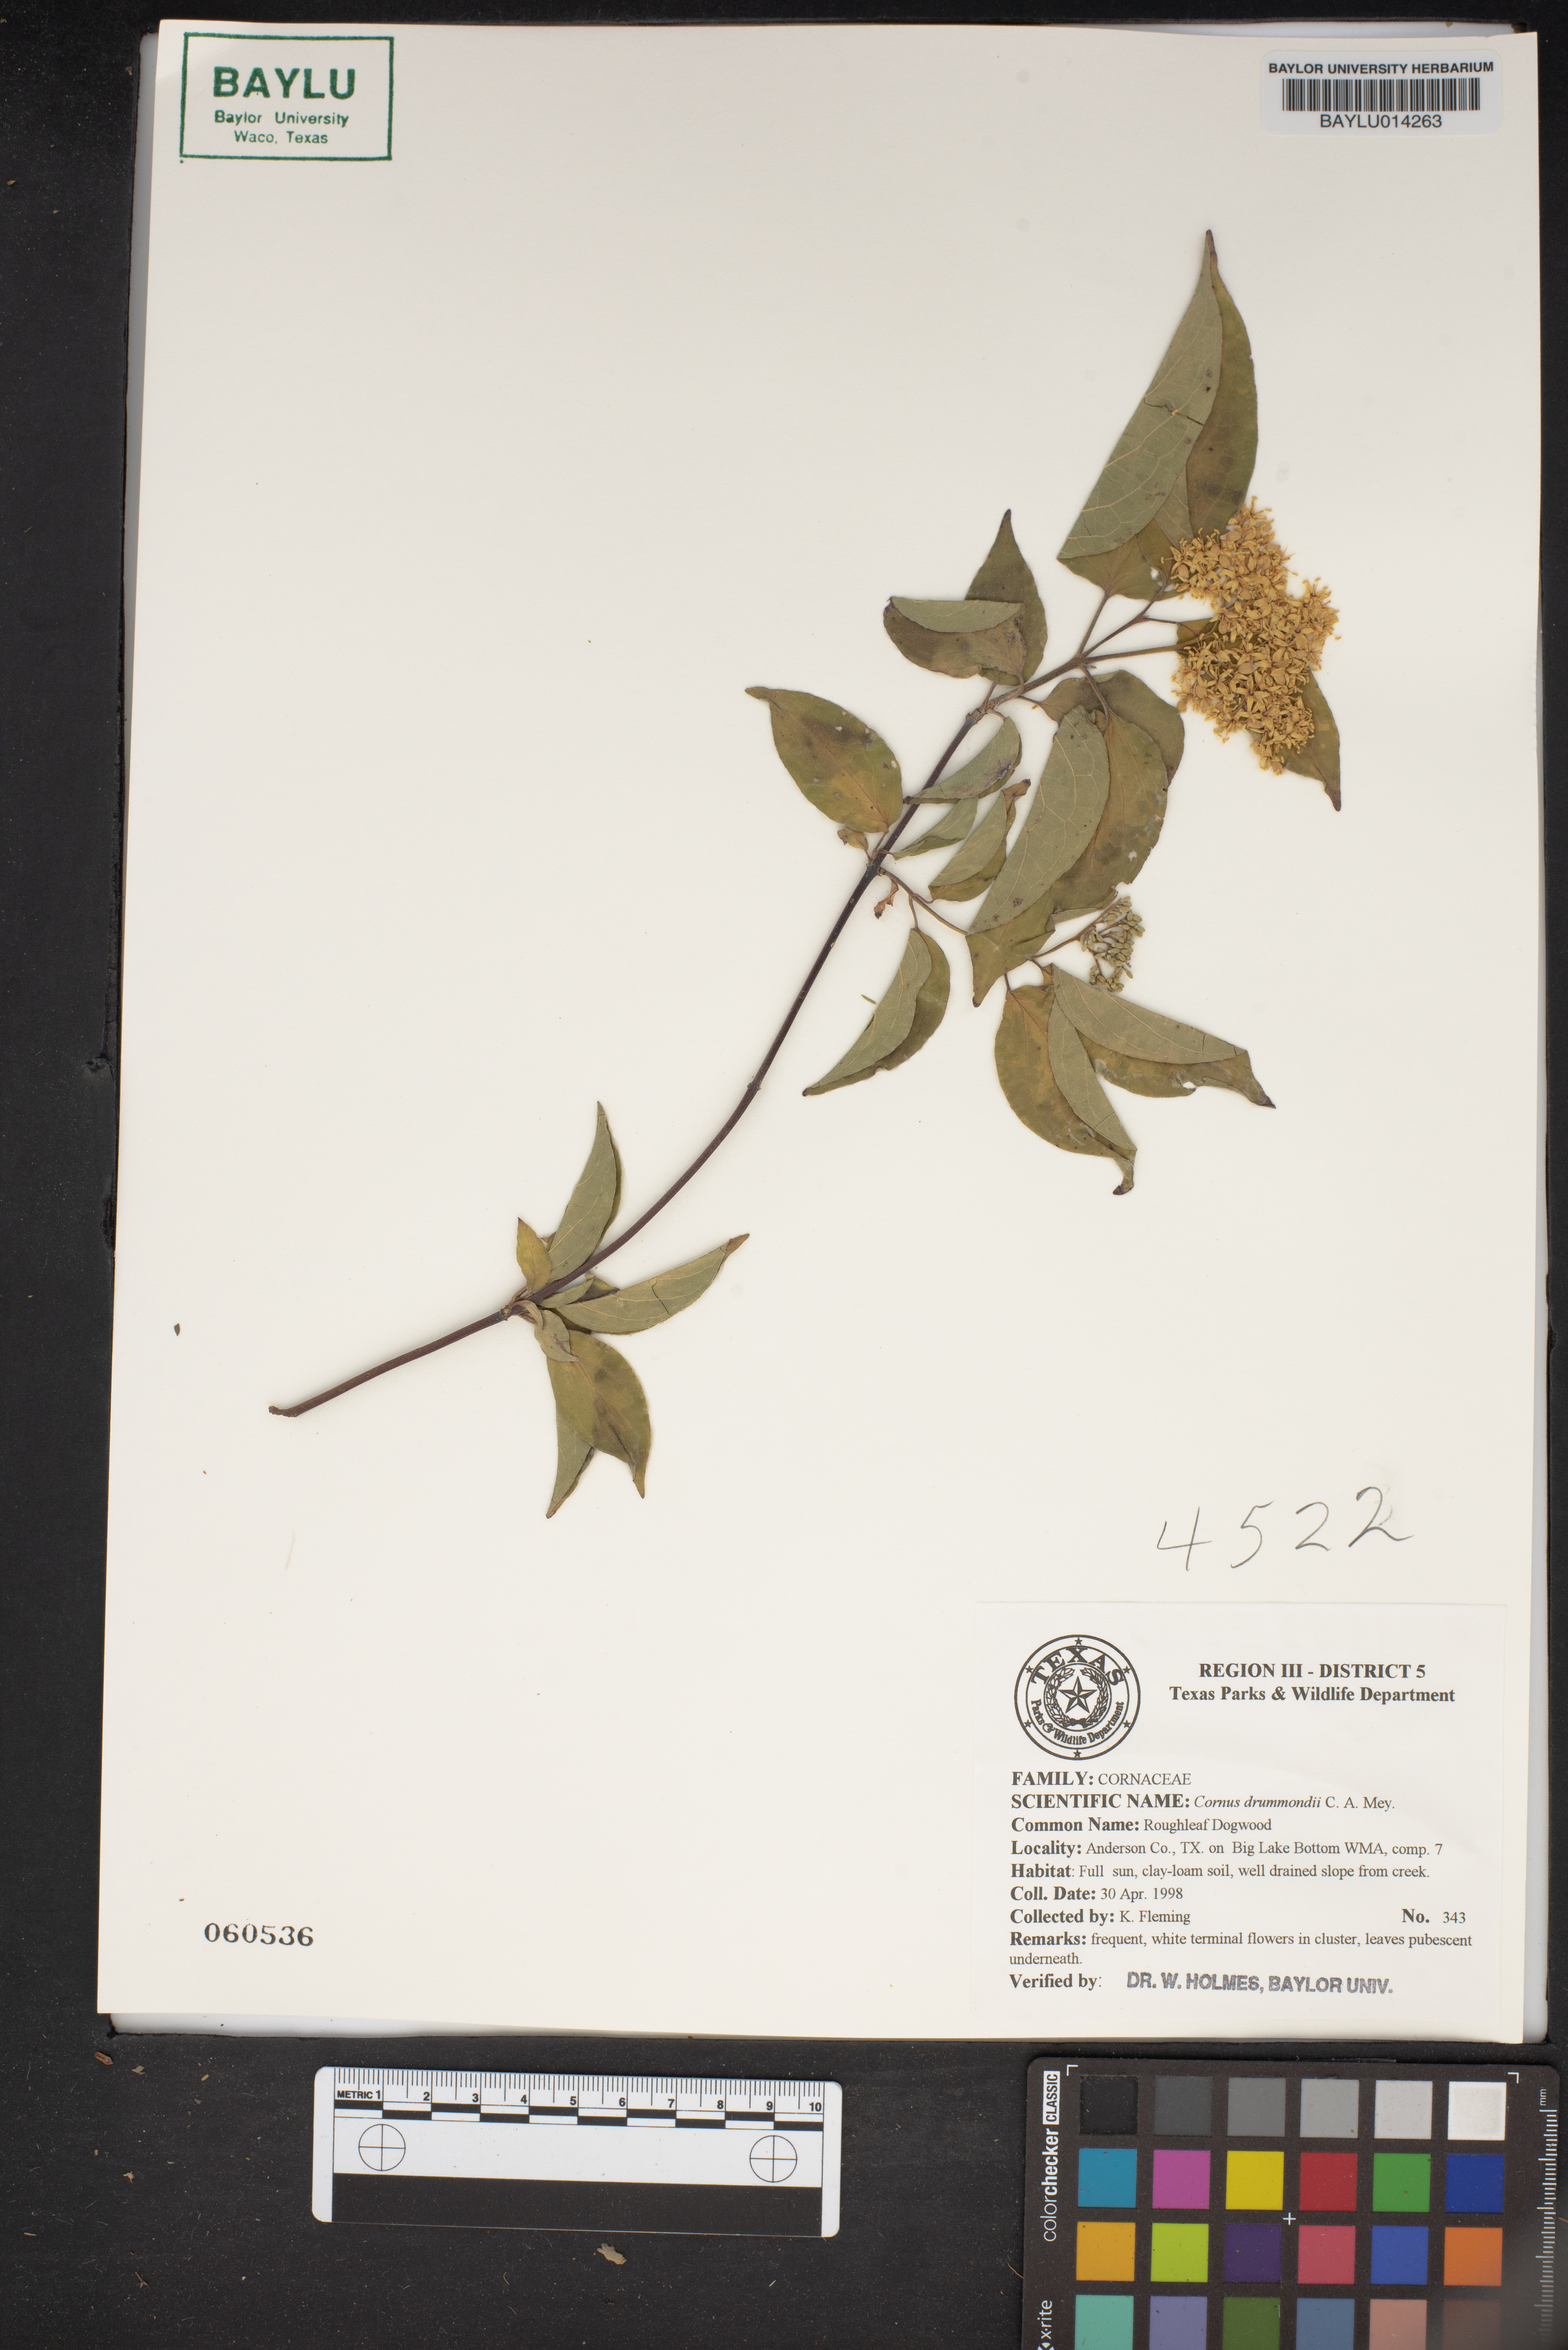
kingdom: Plantae
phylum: Tracheophyta
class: Magnoliopsida
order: Cornales
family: Cornaceae
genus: Cornus
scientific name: Cornus drummondii
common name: Rough-leaf dogwood
